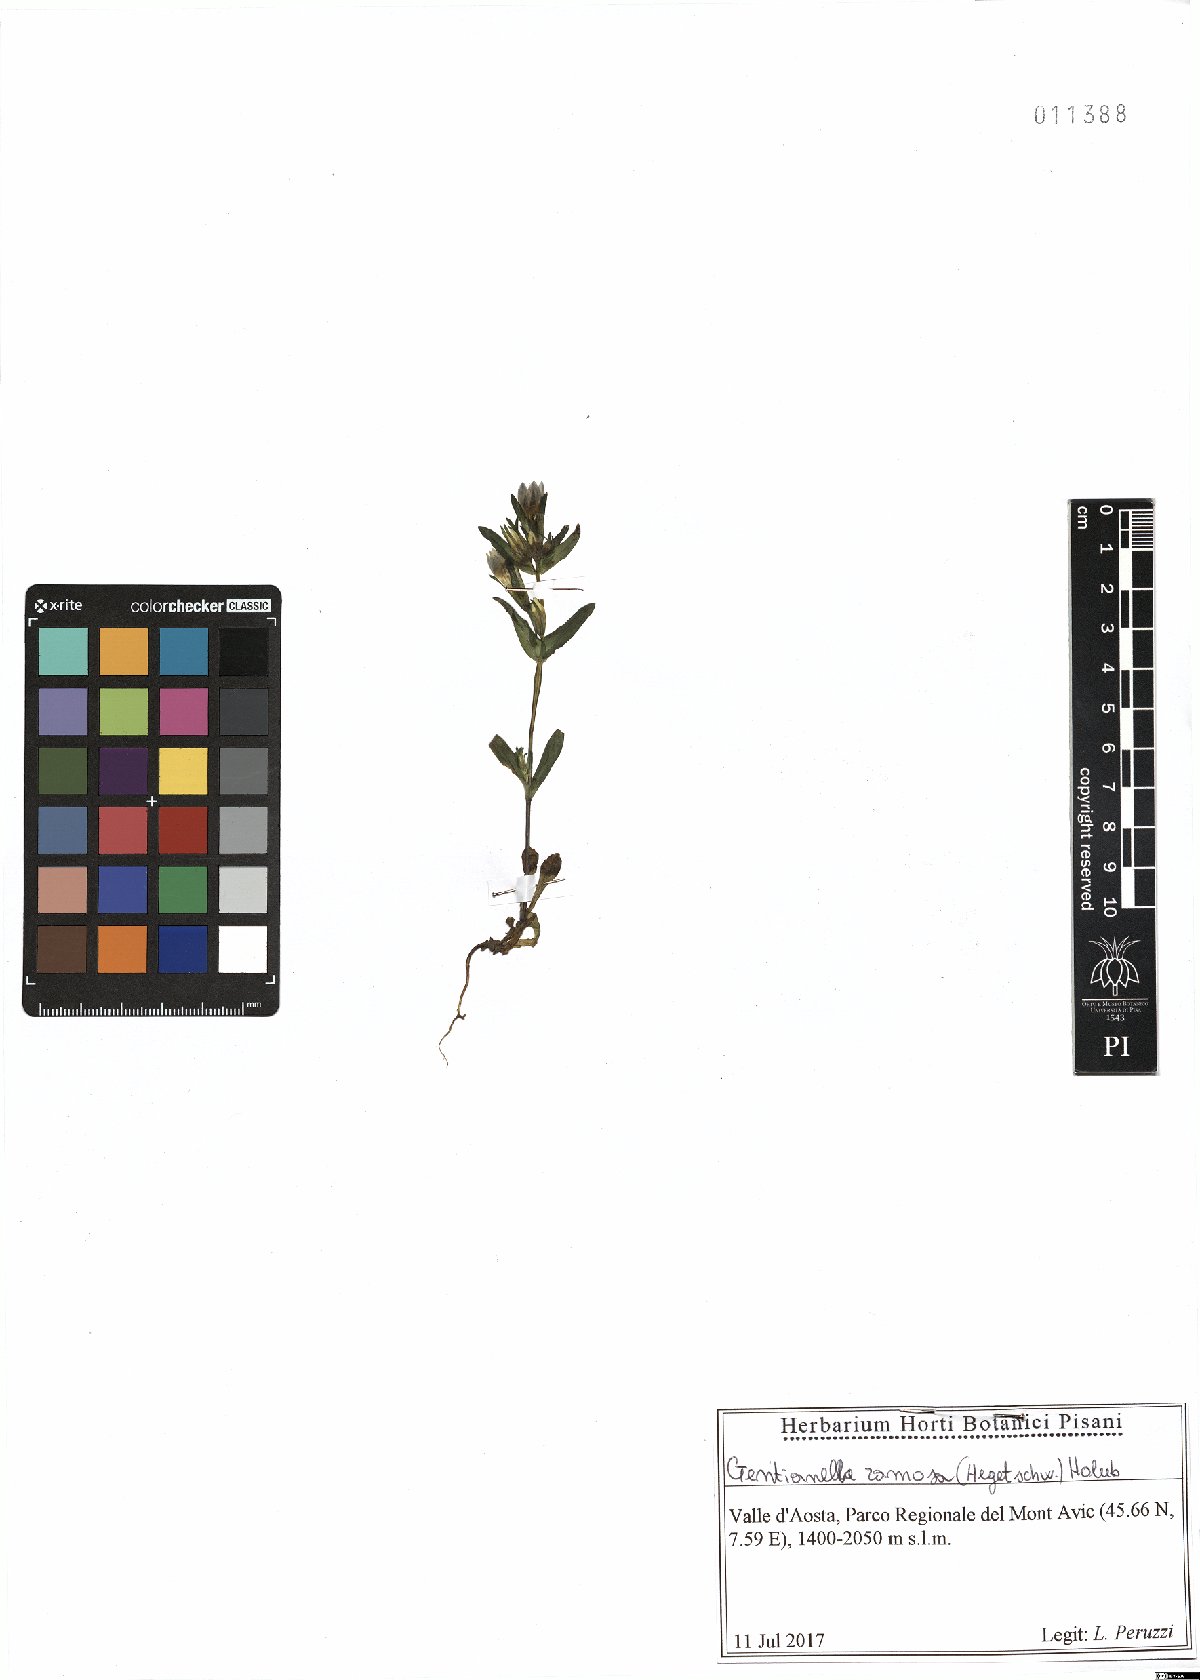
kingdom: Plantae
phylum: Tracheophyta
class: Magnoliopsida
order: Gentianales
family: Gentianaceae
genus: Gentianella
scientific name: Gentianella ramosa
